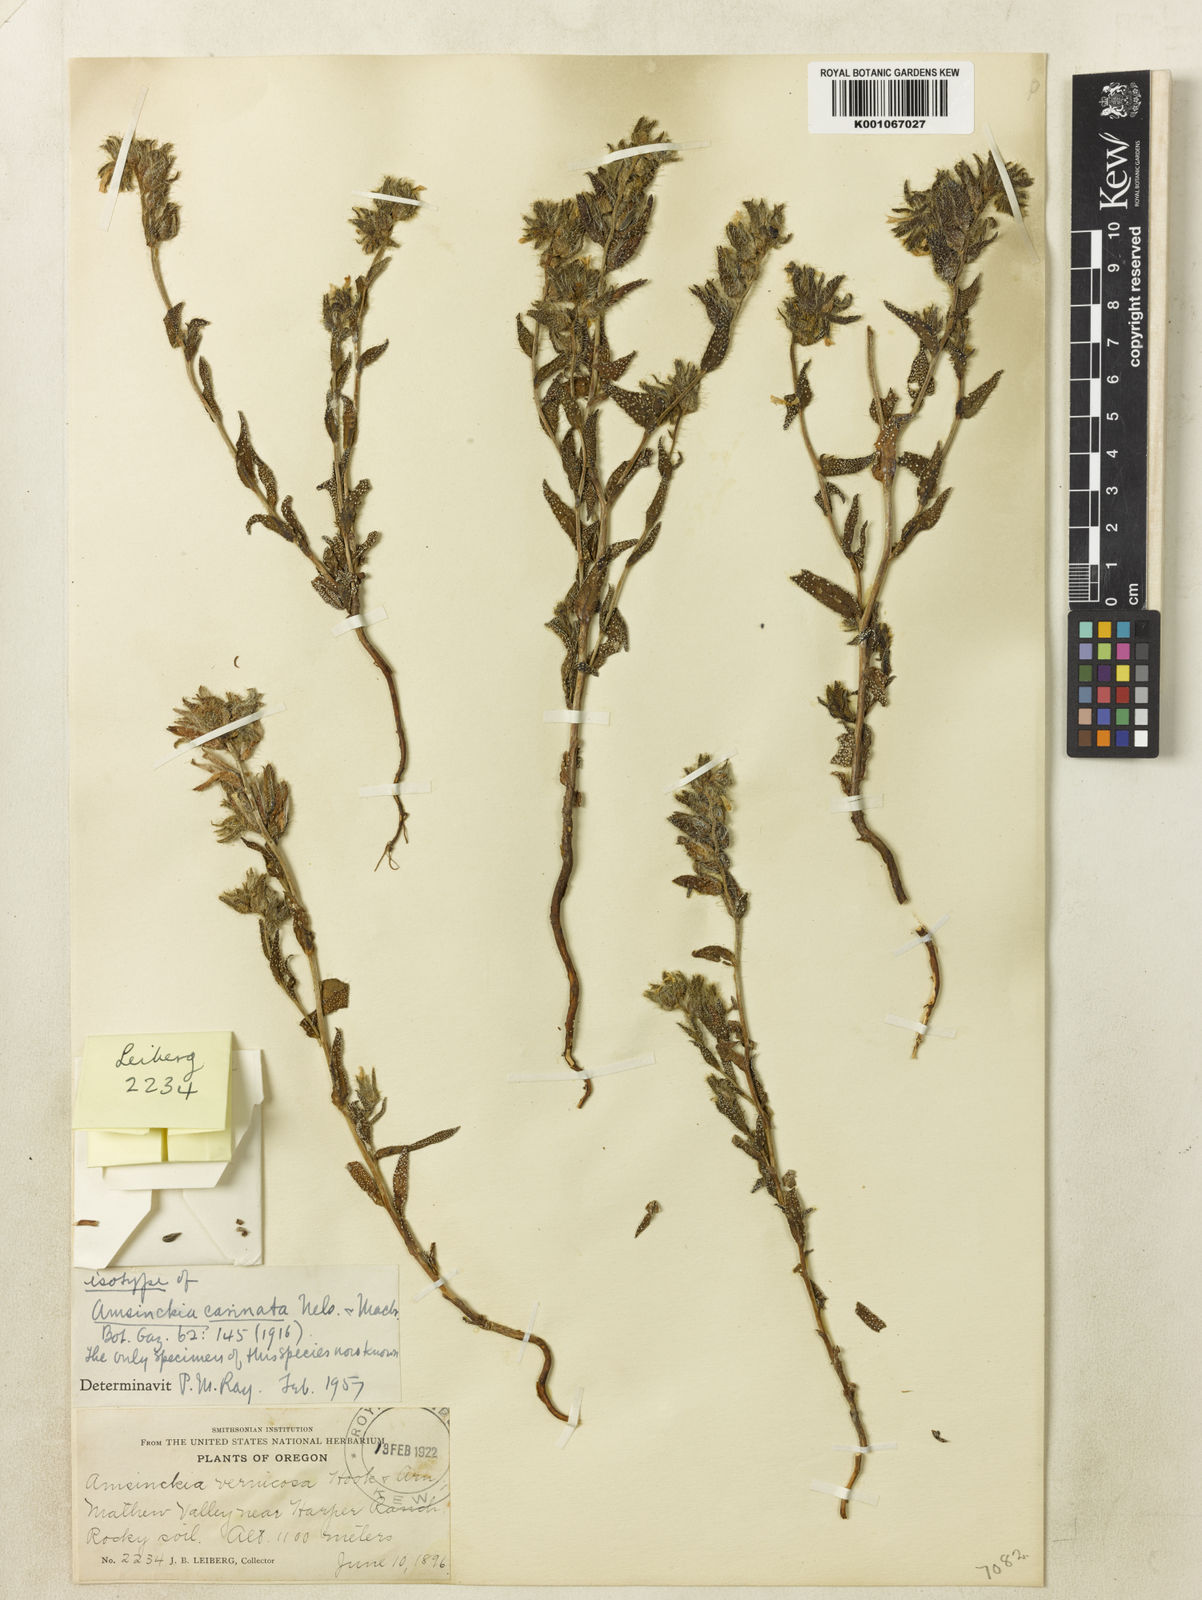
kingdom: Plantae
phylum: Tracheophyta
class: Magnoliopsida
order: Boraginales
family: Boraginaceae
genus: Amsinckia
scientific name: Amsinckia carinata
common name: Malheur fiddleneck
